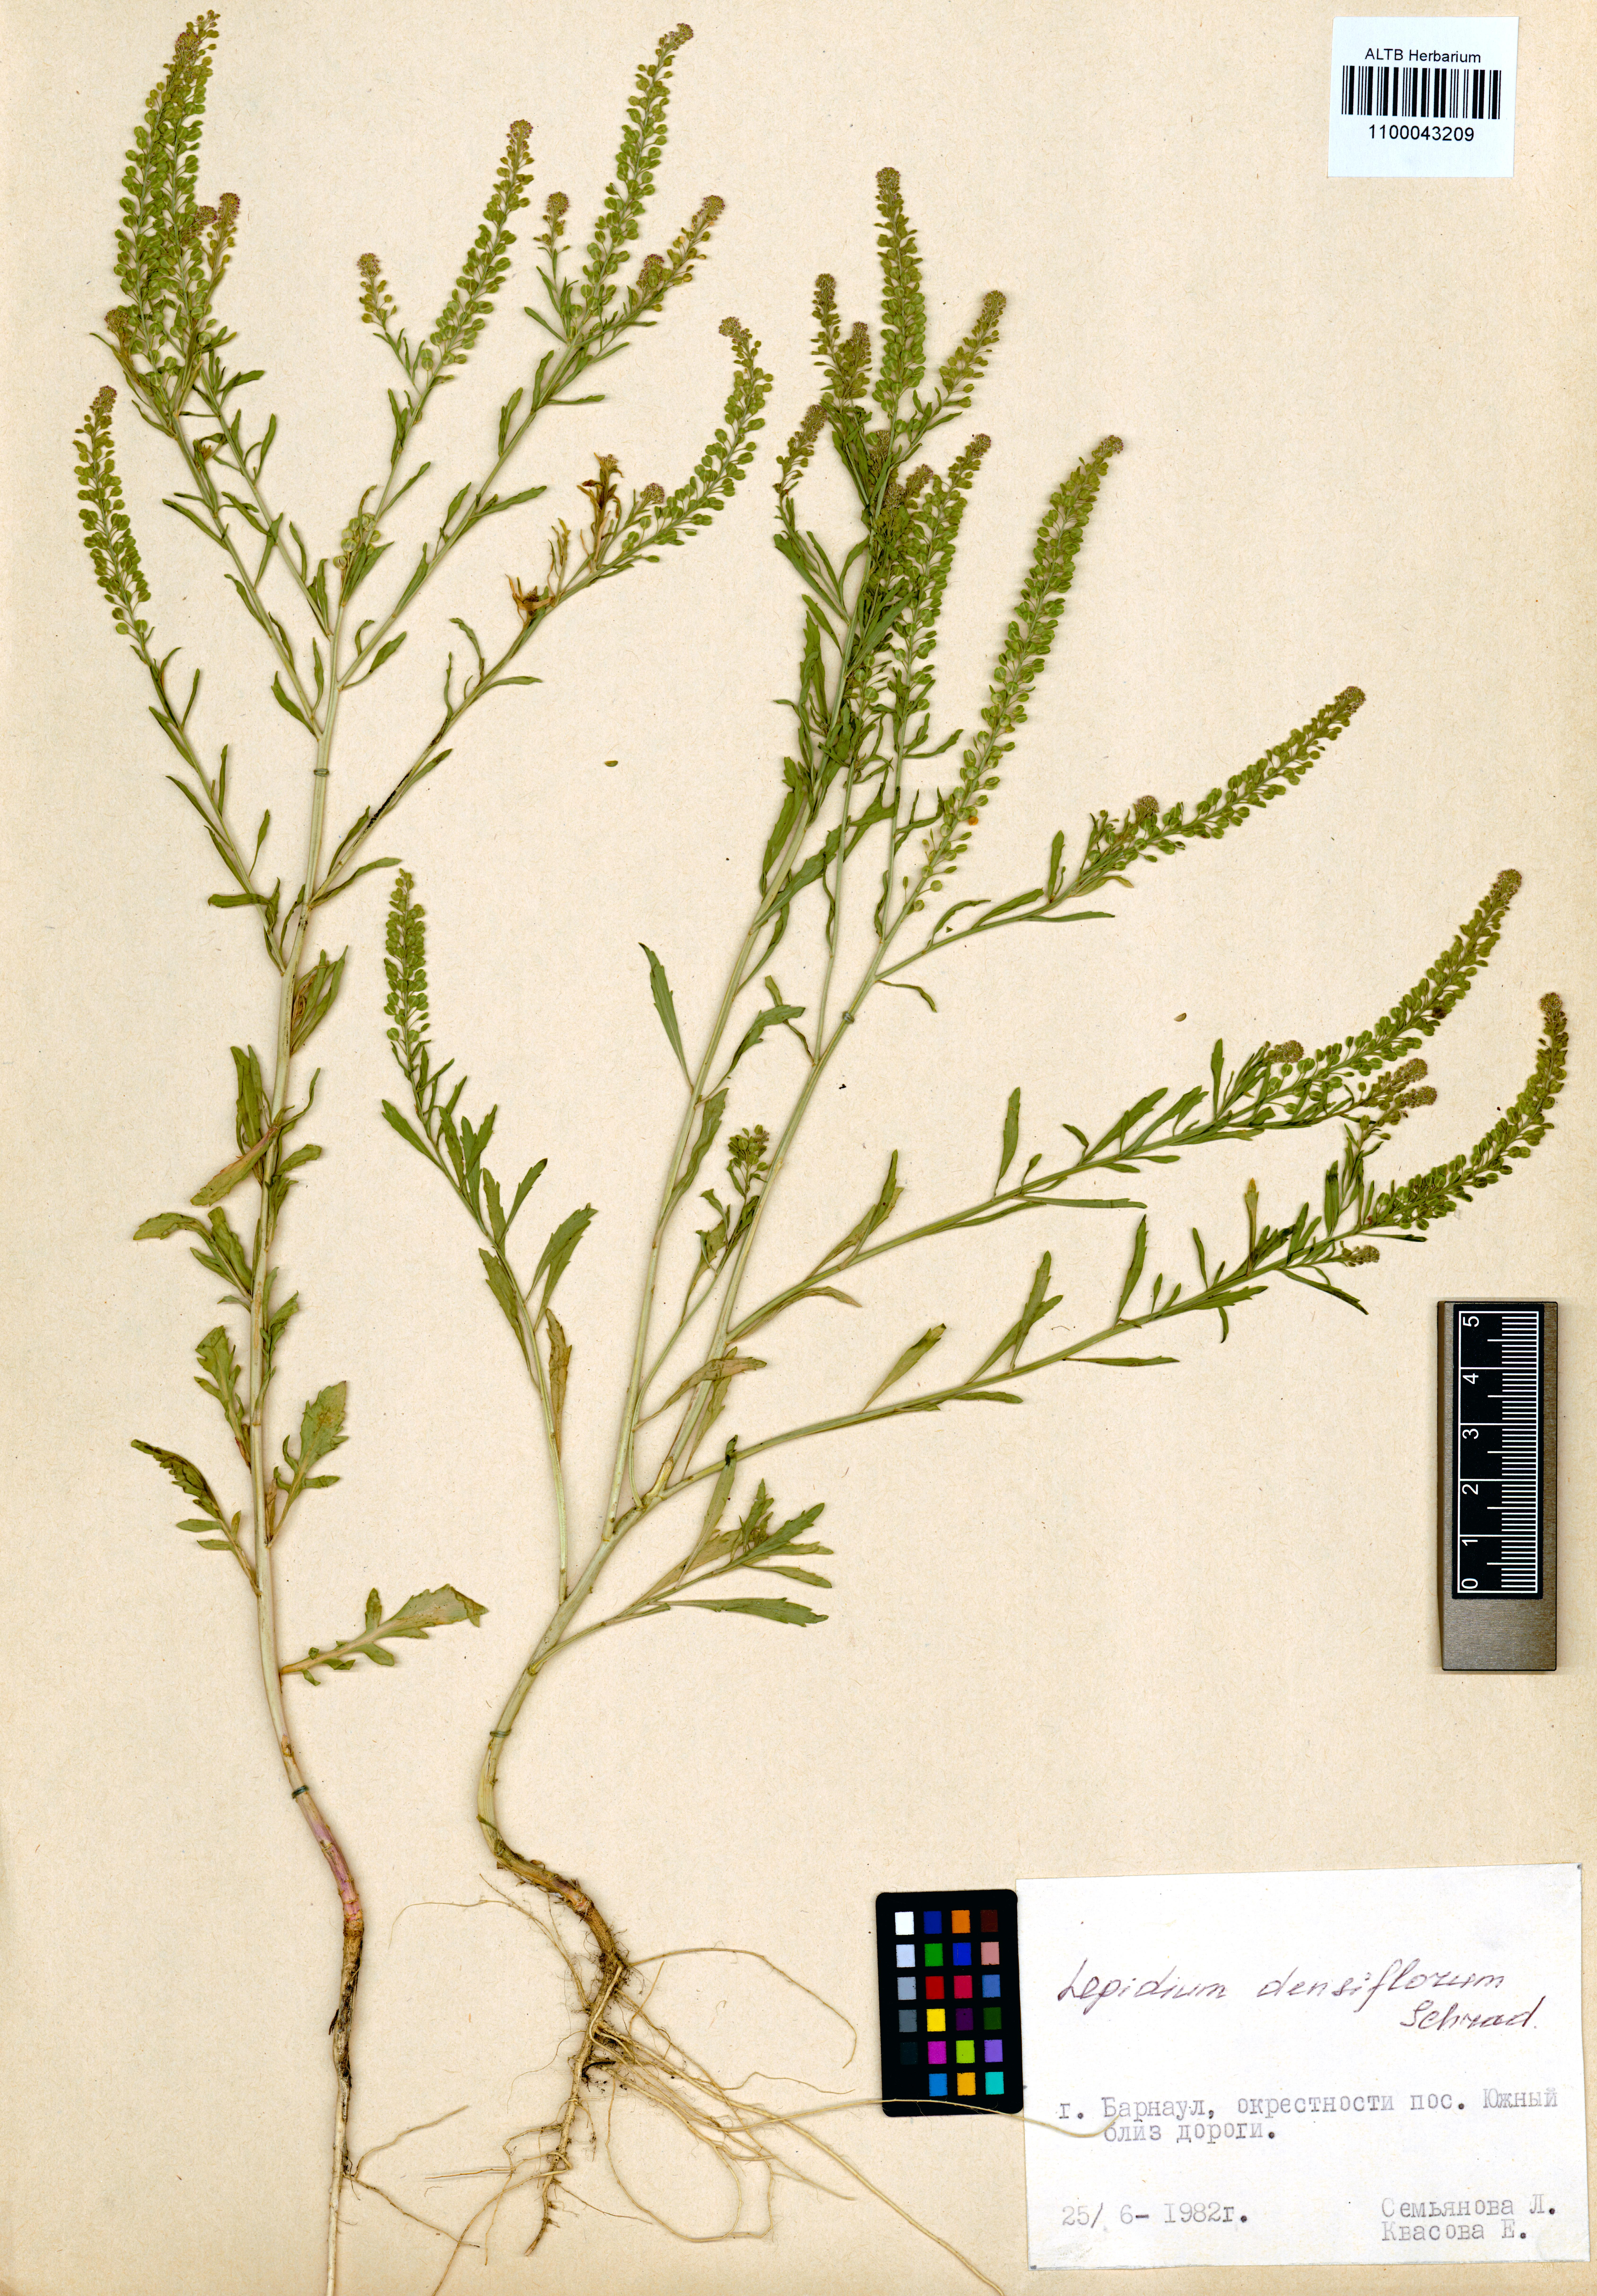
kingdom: Plantae
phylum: Tracheophyta
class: Magnoliopsida
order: Brassicales
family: Brassicaceae
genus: Lepidium
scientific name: Lepidium densiflorum
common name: Miner's pepperwort
